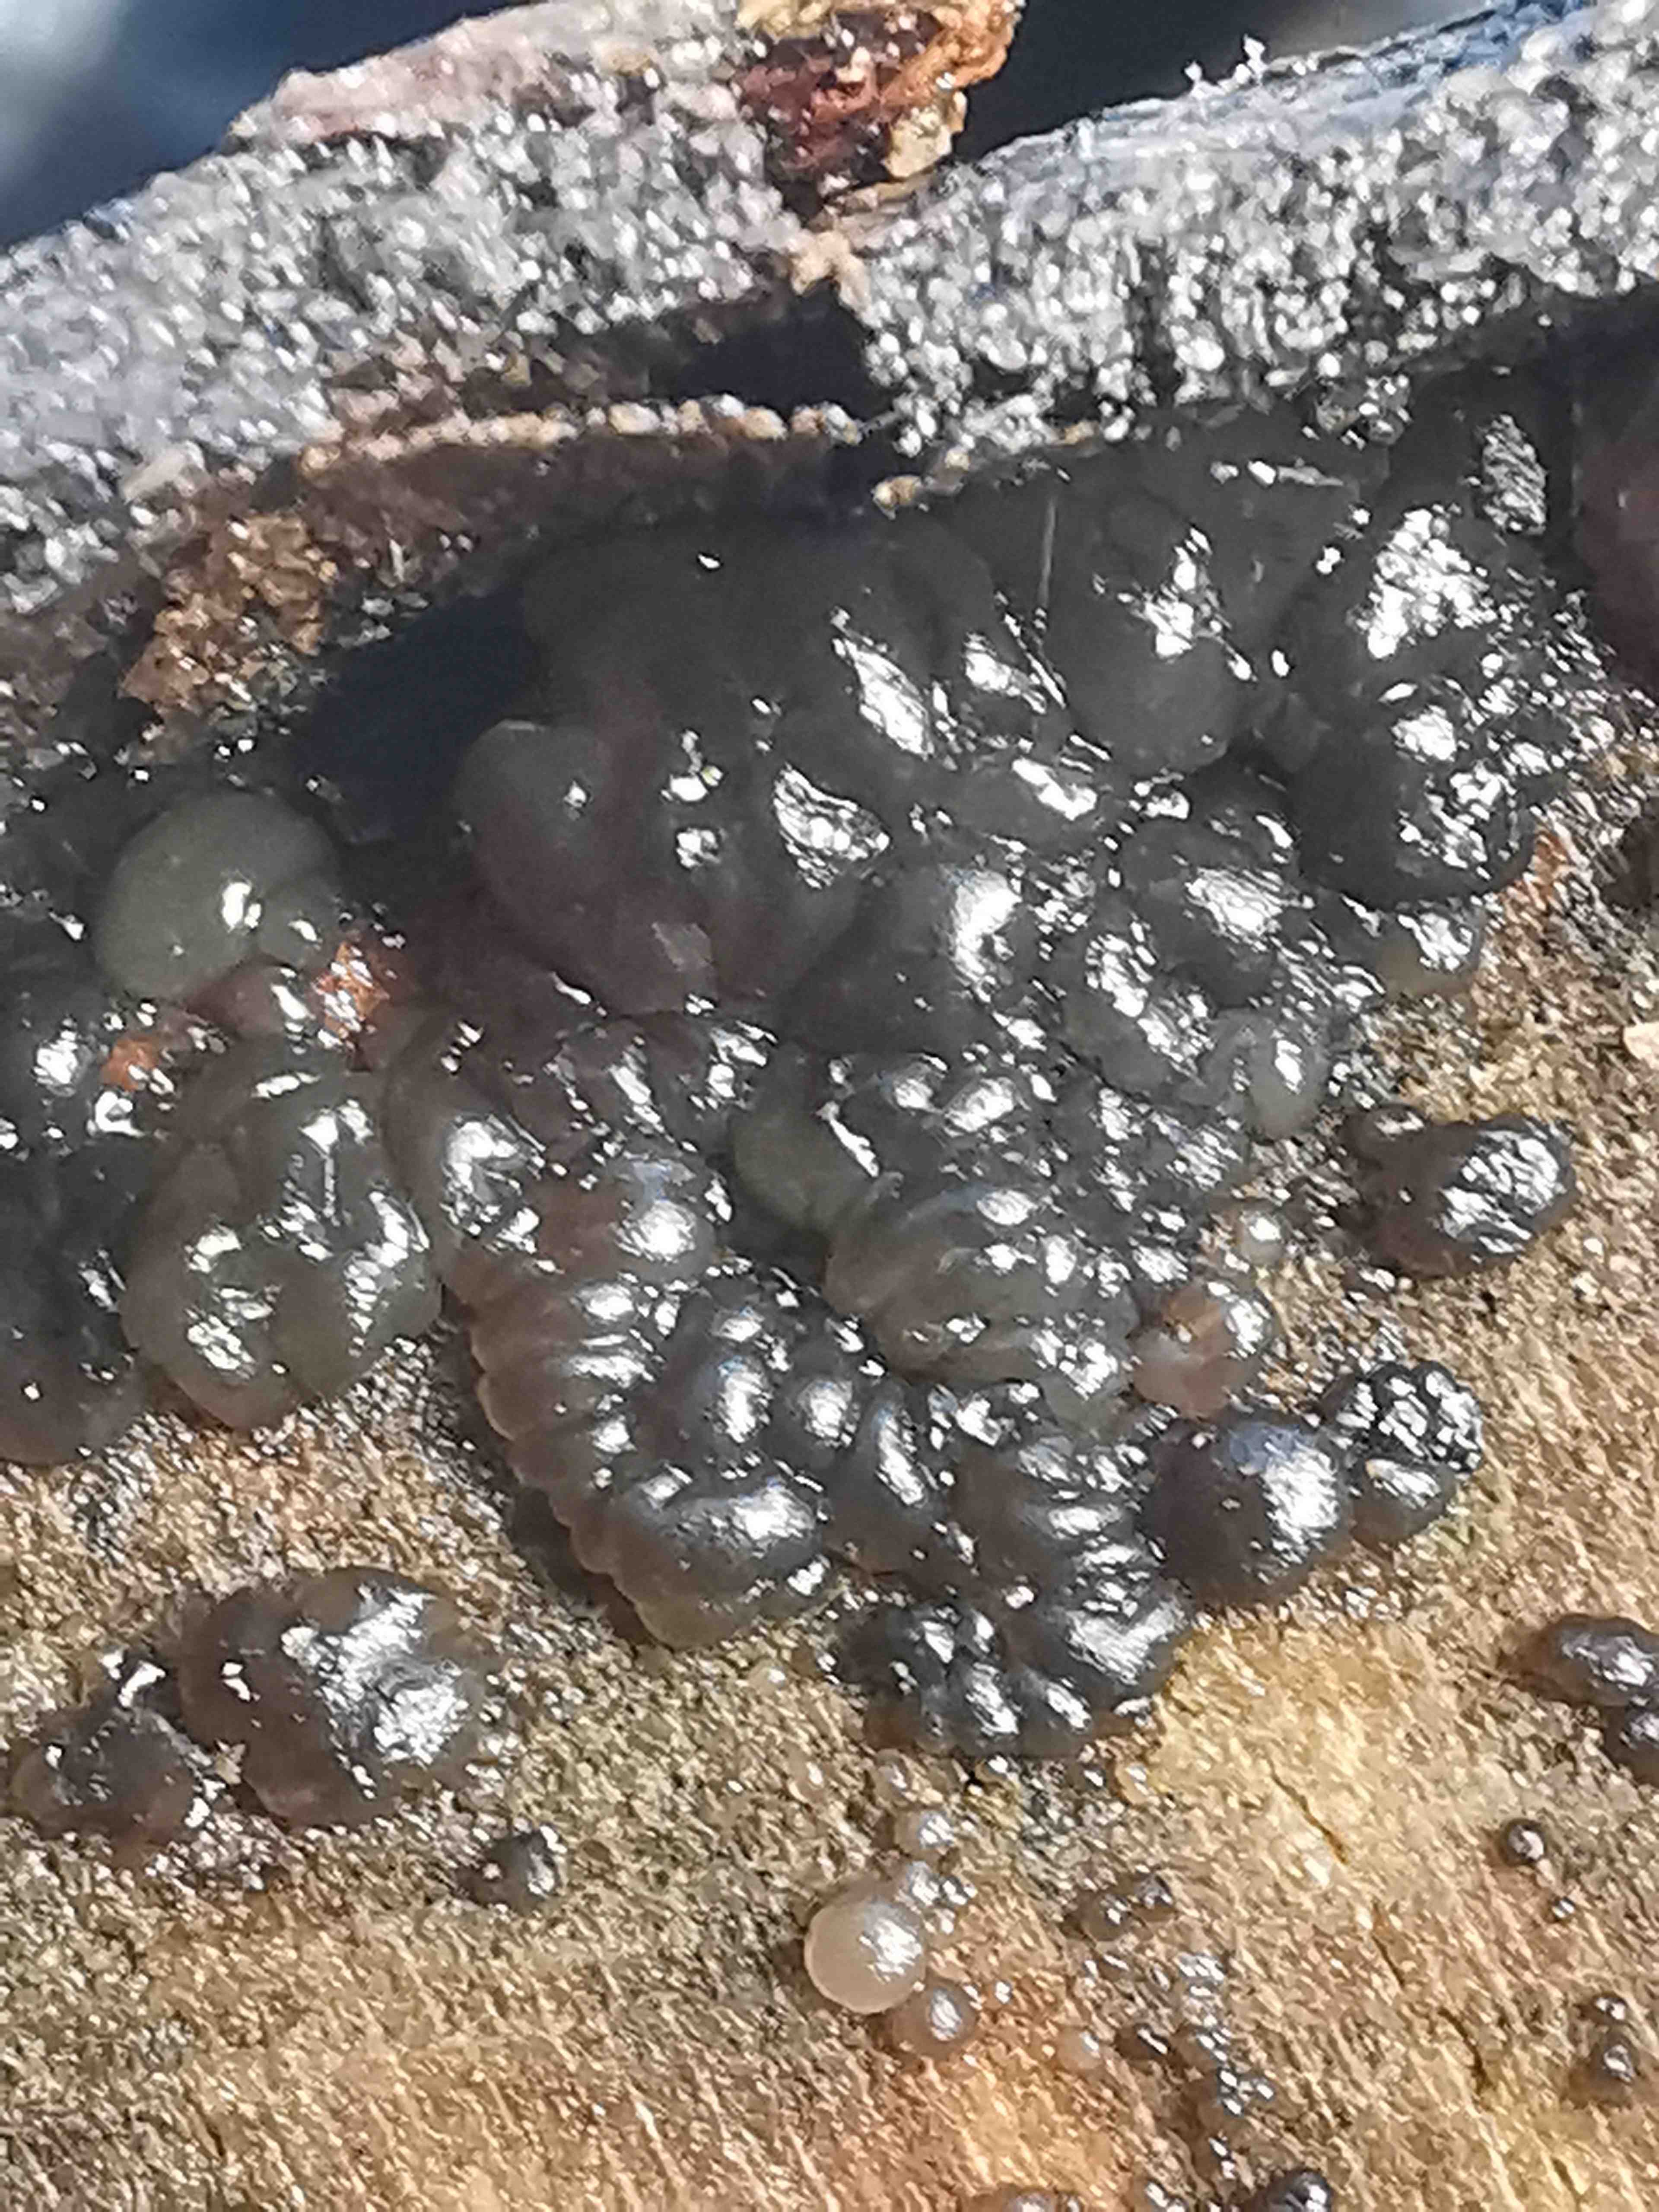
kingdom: Fungi
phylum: Basidiomycota
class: Agaricomycetes
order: Auriculariales
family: Auriculariaceae
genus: Exidia
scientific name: Exidia pithya
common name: gran-bævretop
